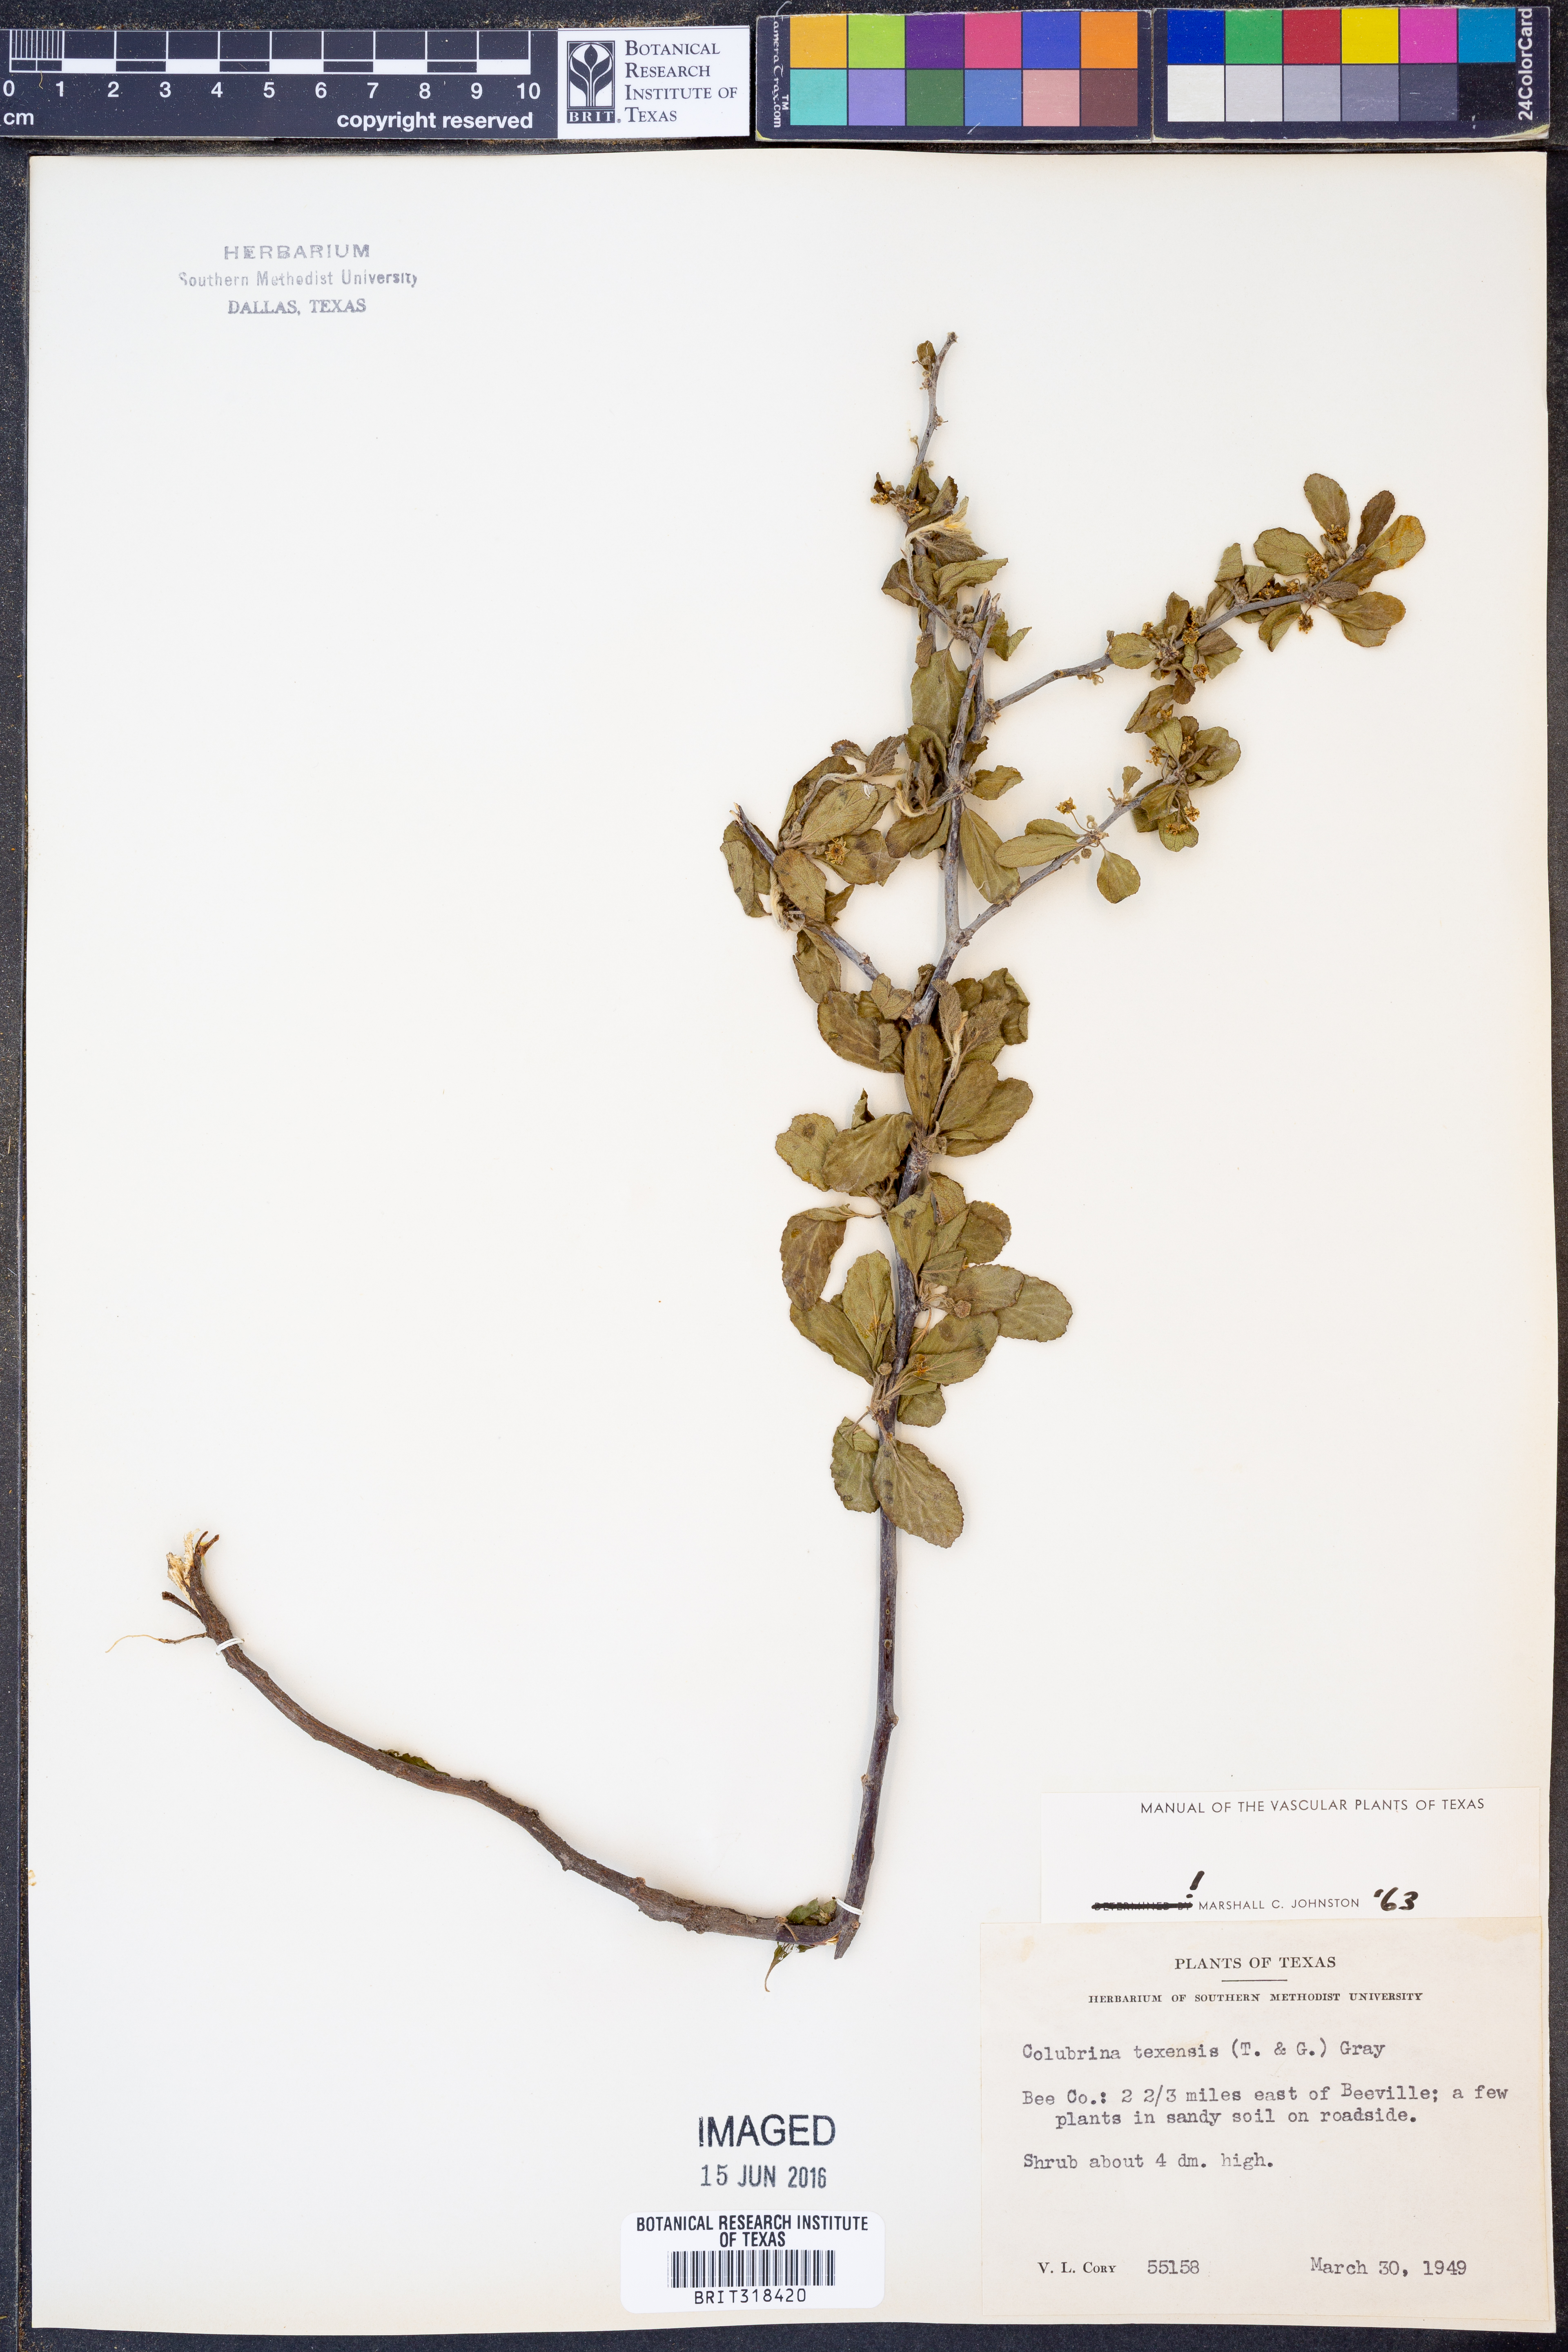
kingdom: Plantae
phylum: Tracheophyta
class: Magnoliopsida
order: Rosales
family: Rhamnaceae
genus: Colubrina
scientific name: Colubrina texensis
